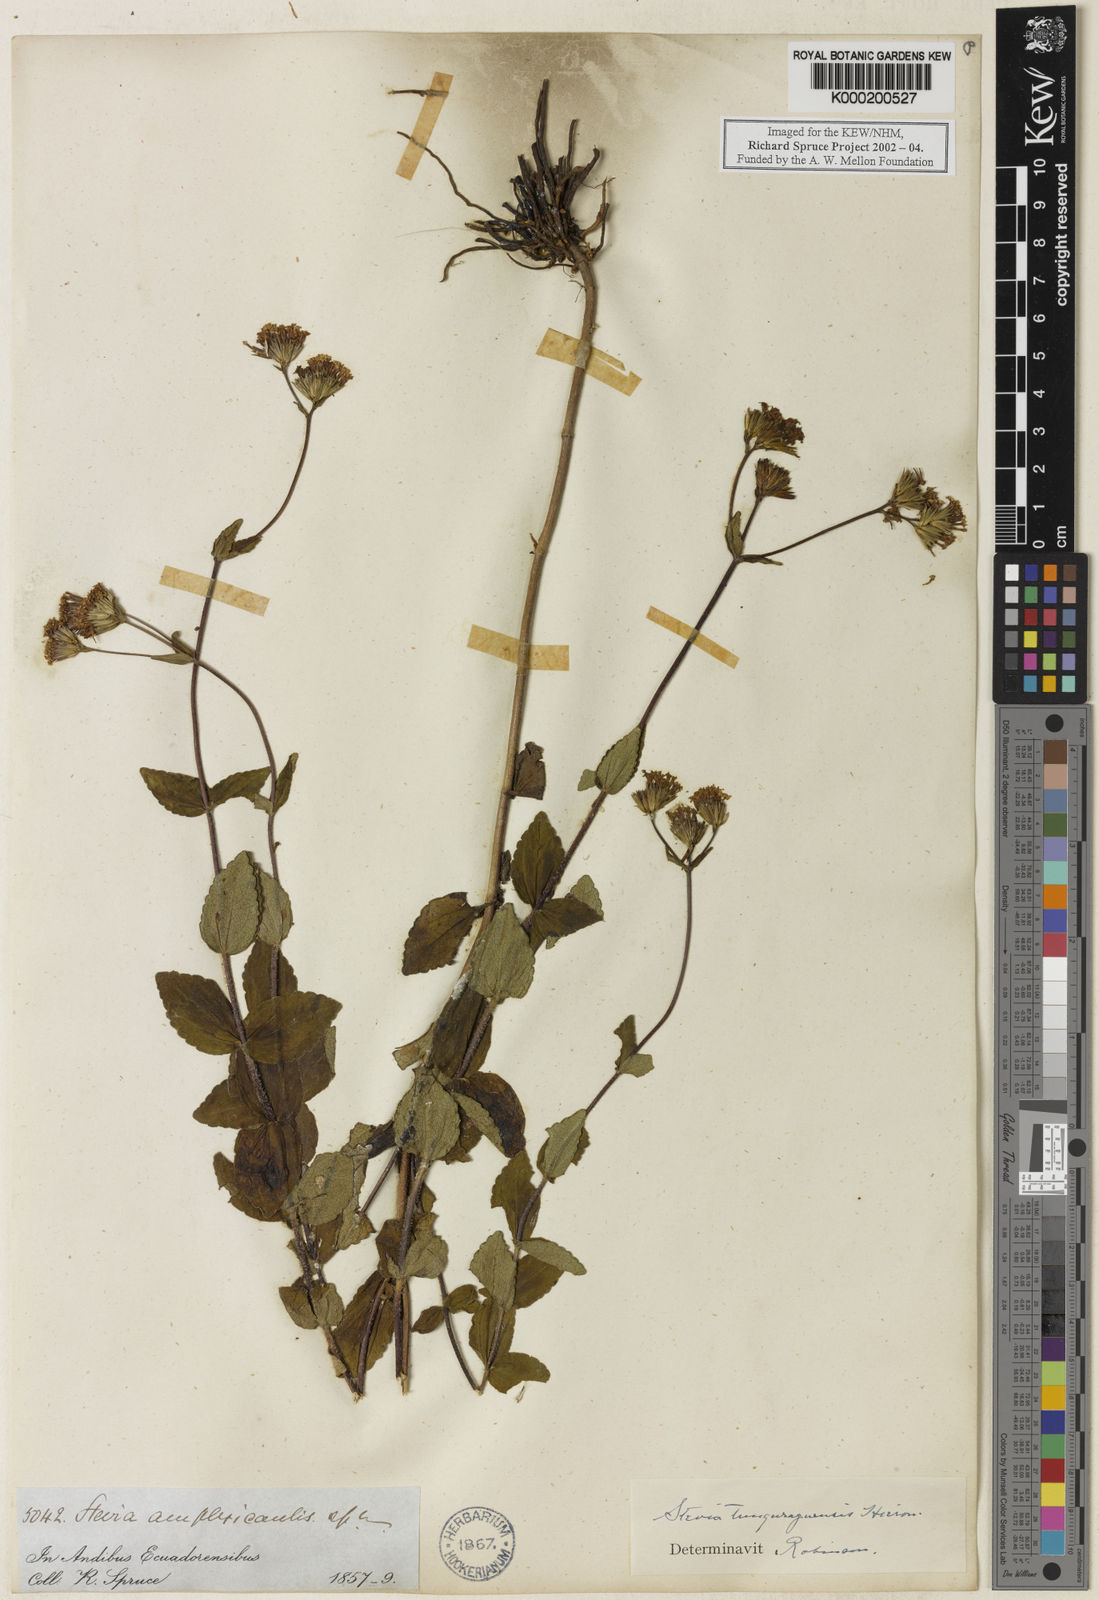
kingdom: Plantae
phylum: Tracheophyta
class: Magnoliopsida
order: Asterales
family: Asteraceae
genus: Stevia
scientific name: Stevia tunguraguensis
